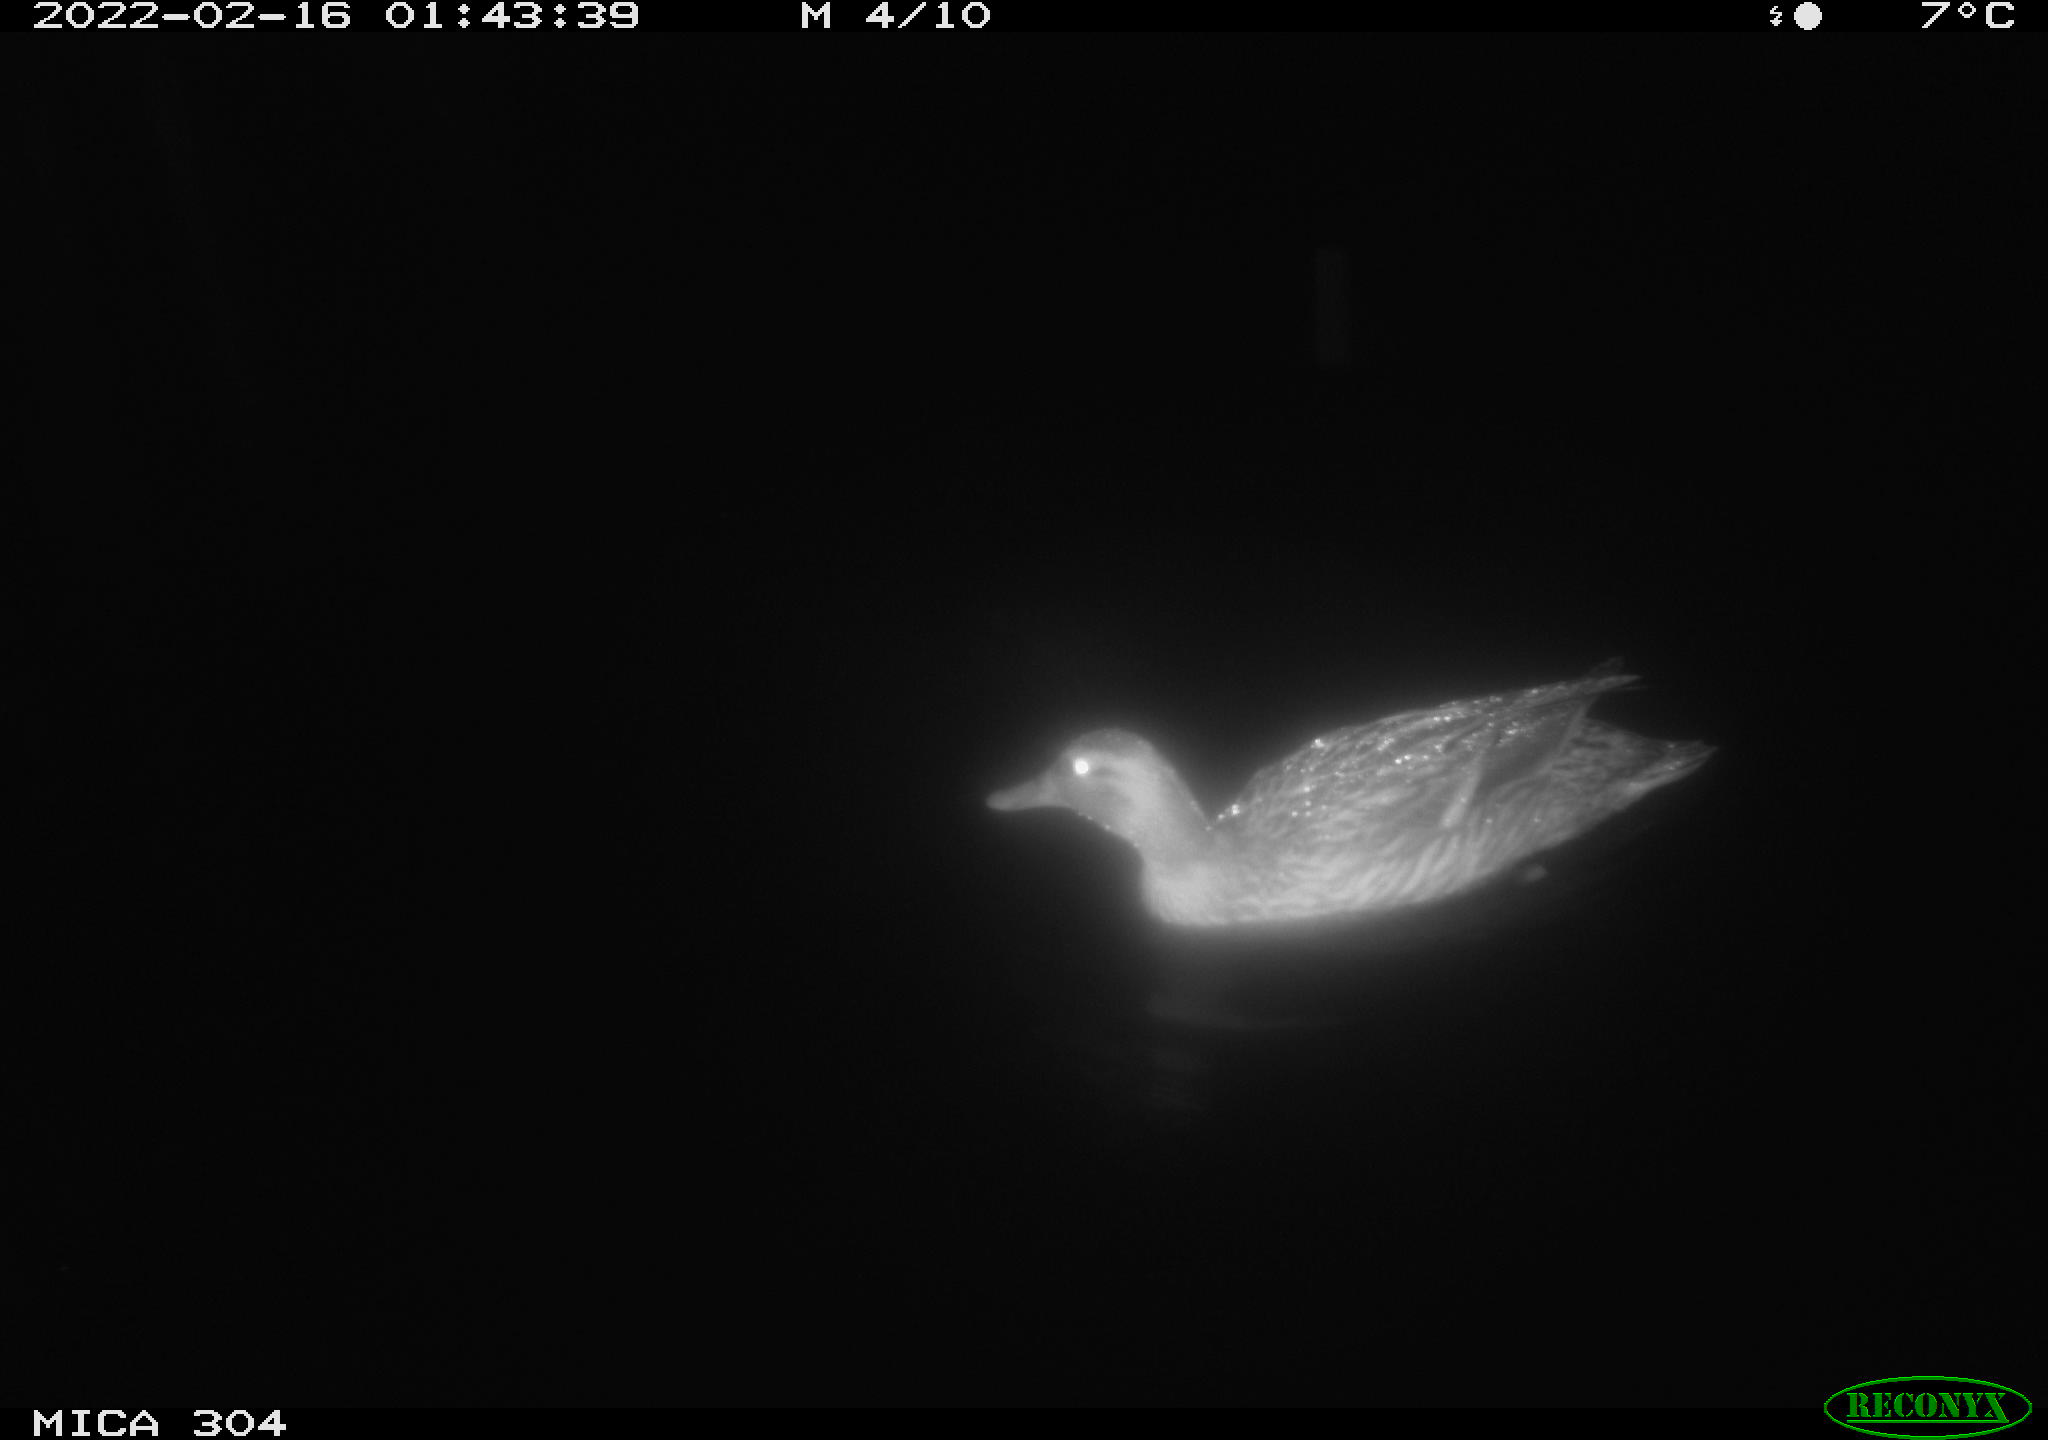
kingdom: Animalia
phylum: Chordata
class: Aves
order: Anseriformes
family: Anatidae
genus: Anas
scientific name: Anas platyrhynchos
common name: Mallard
